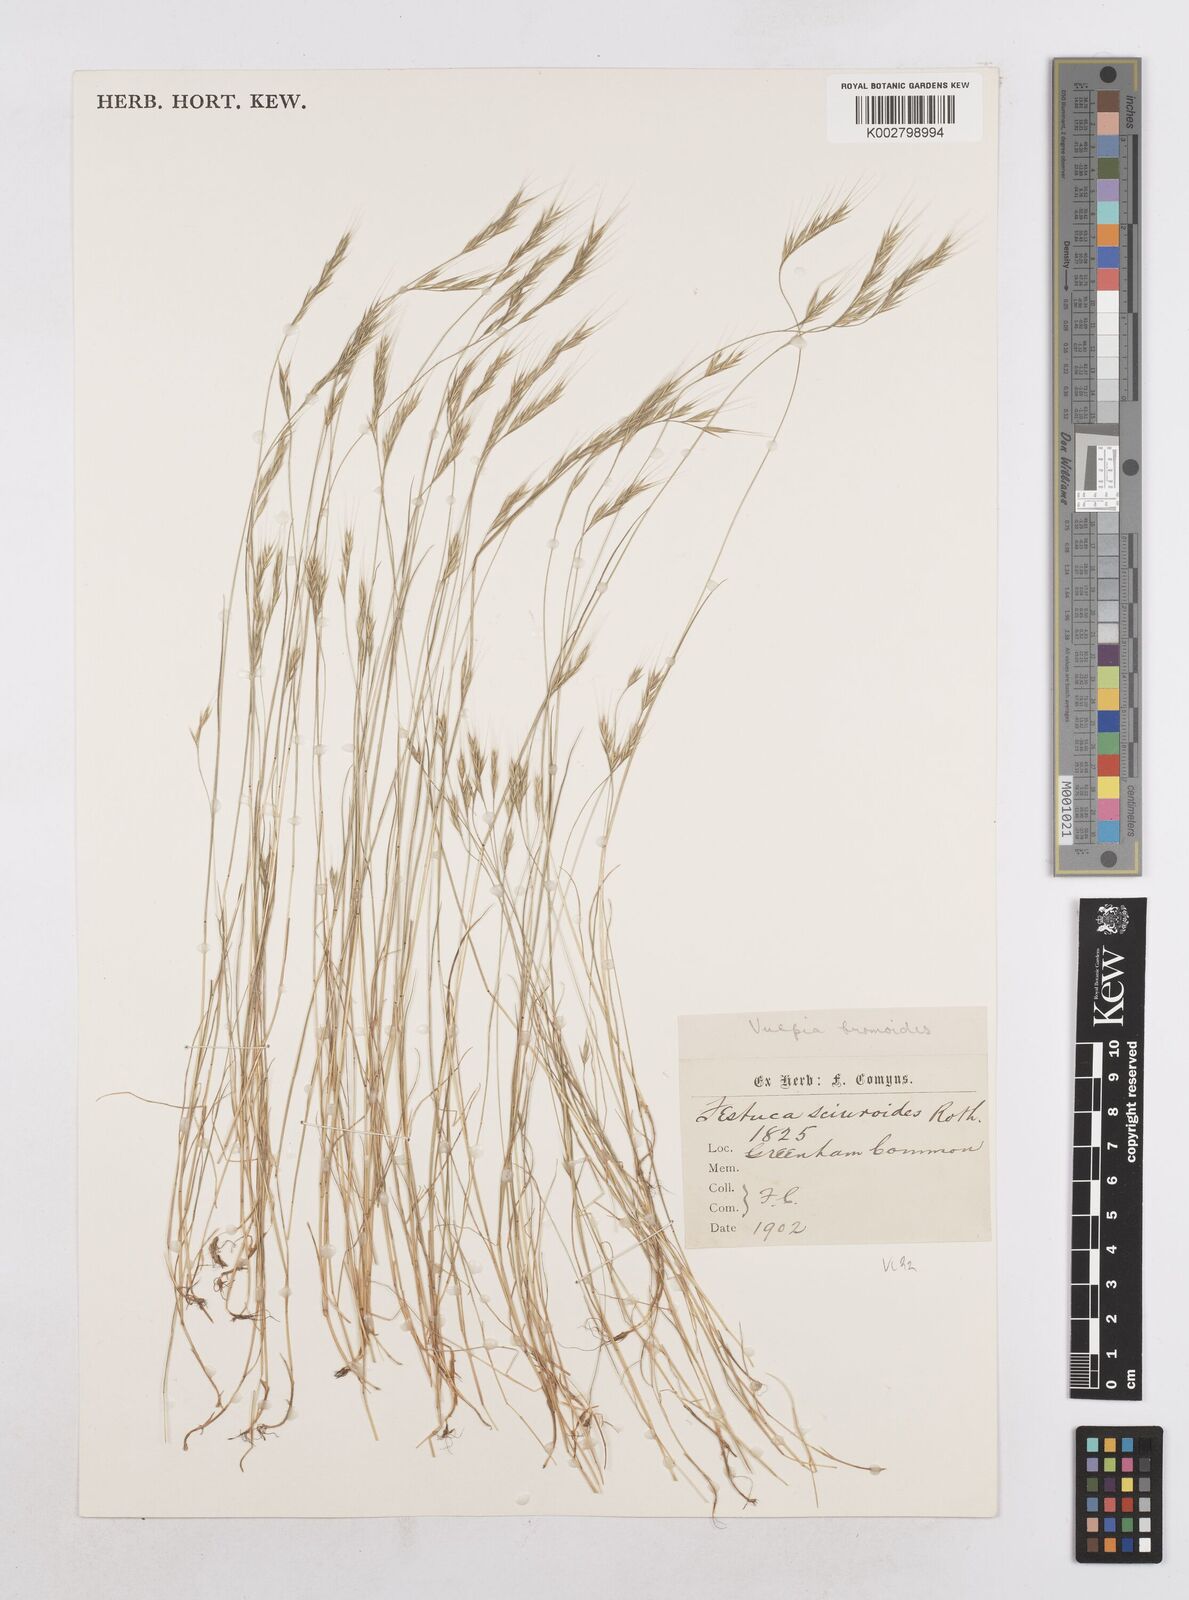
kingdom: Plantae
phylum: Tracheophyta
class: Liliopsida
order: Poales
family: Poaceae
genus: Festuca
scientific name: Festuca bromoides
